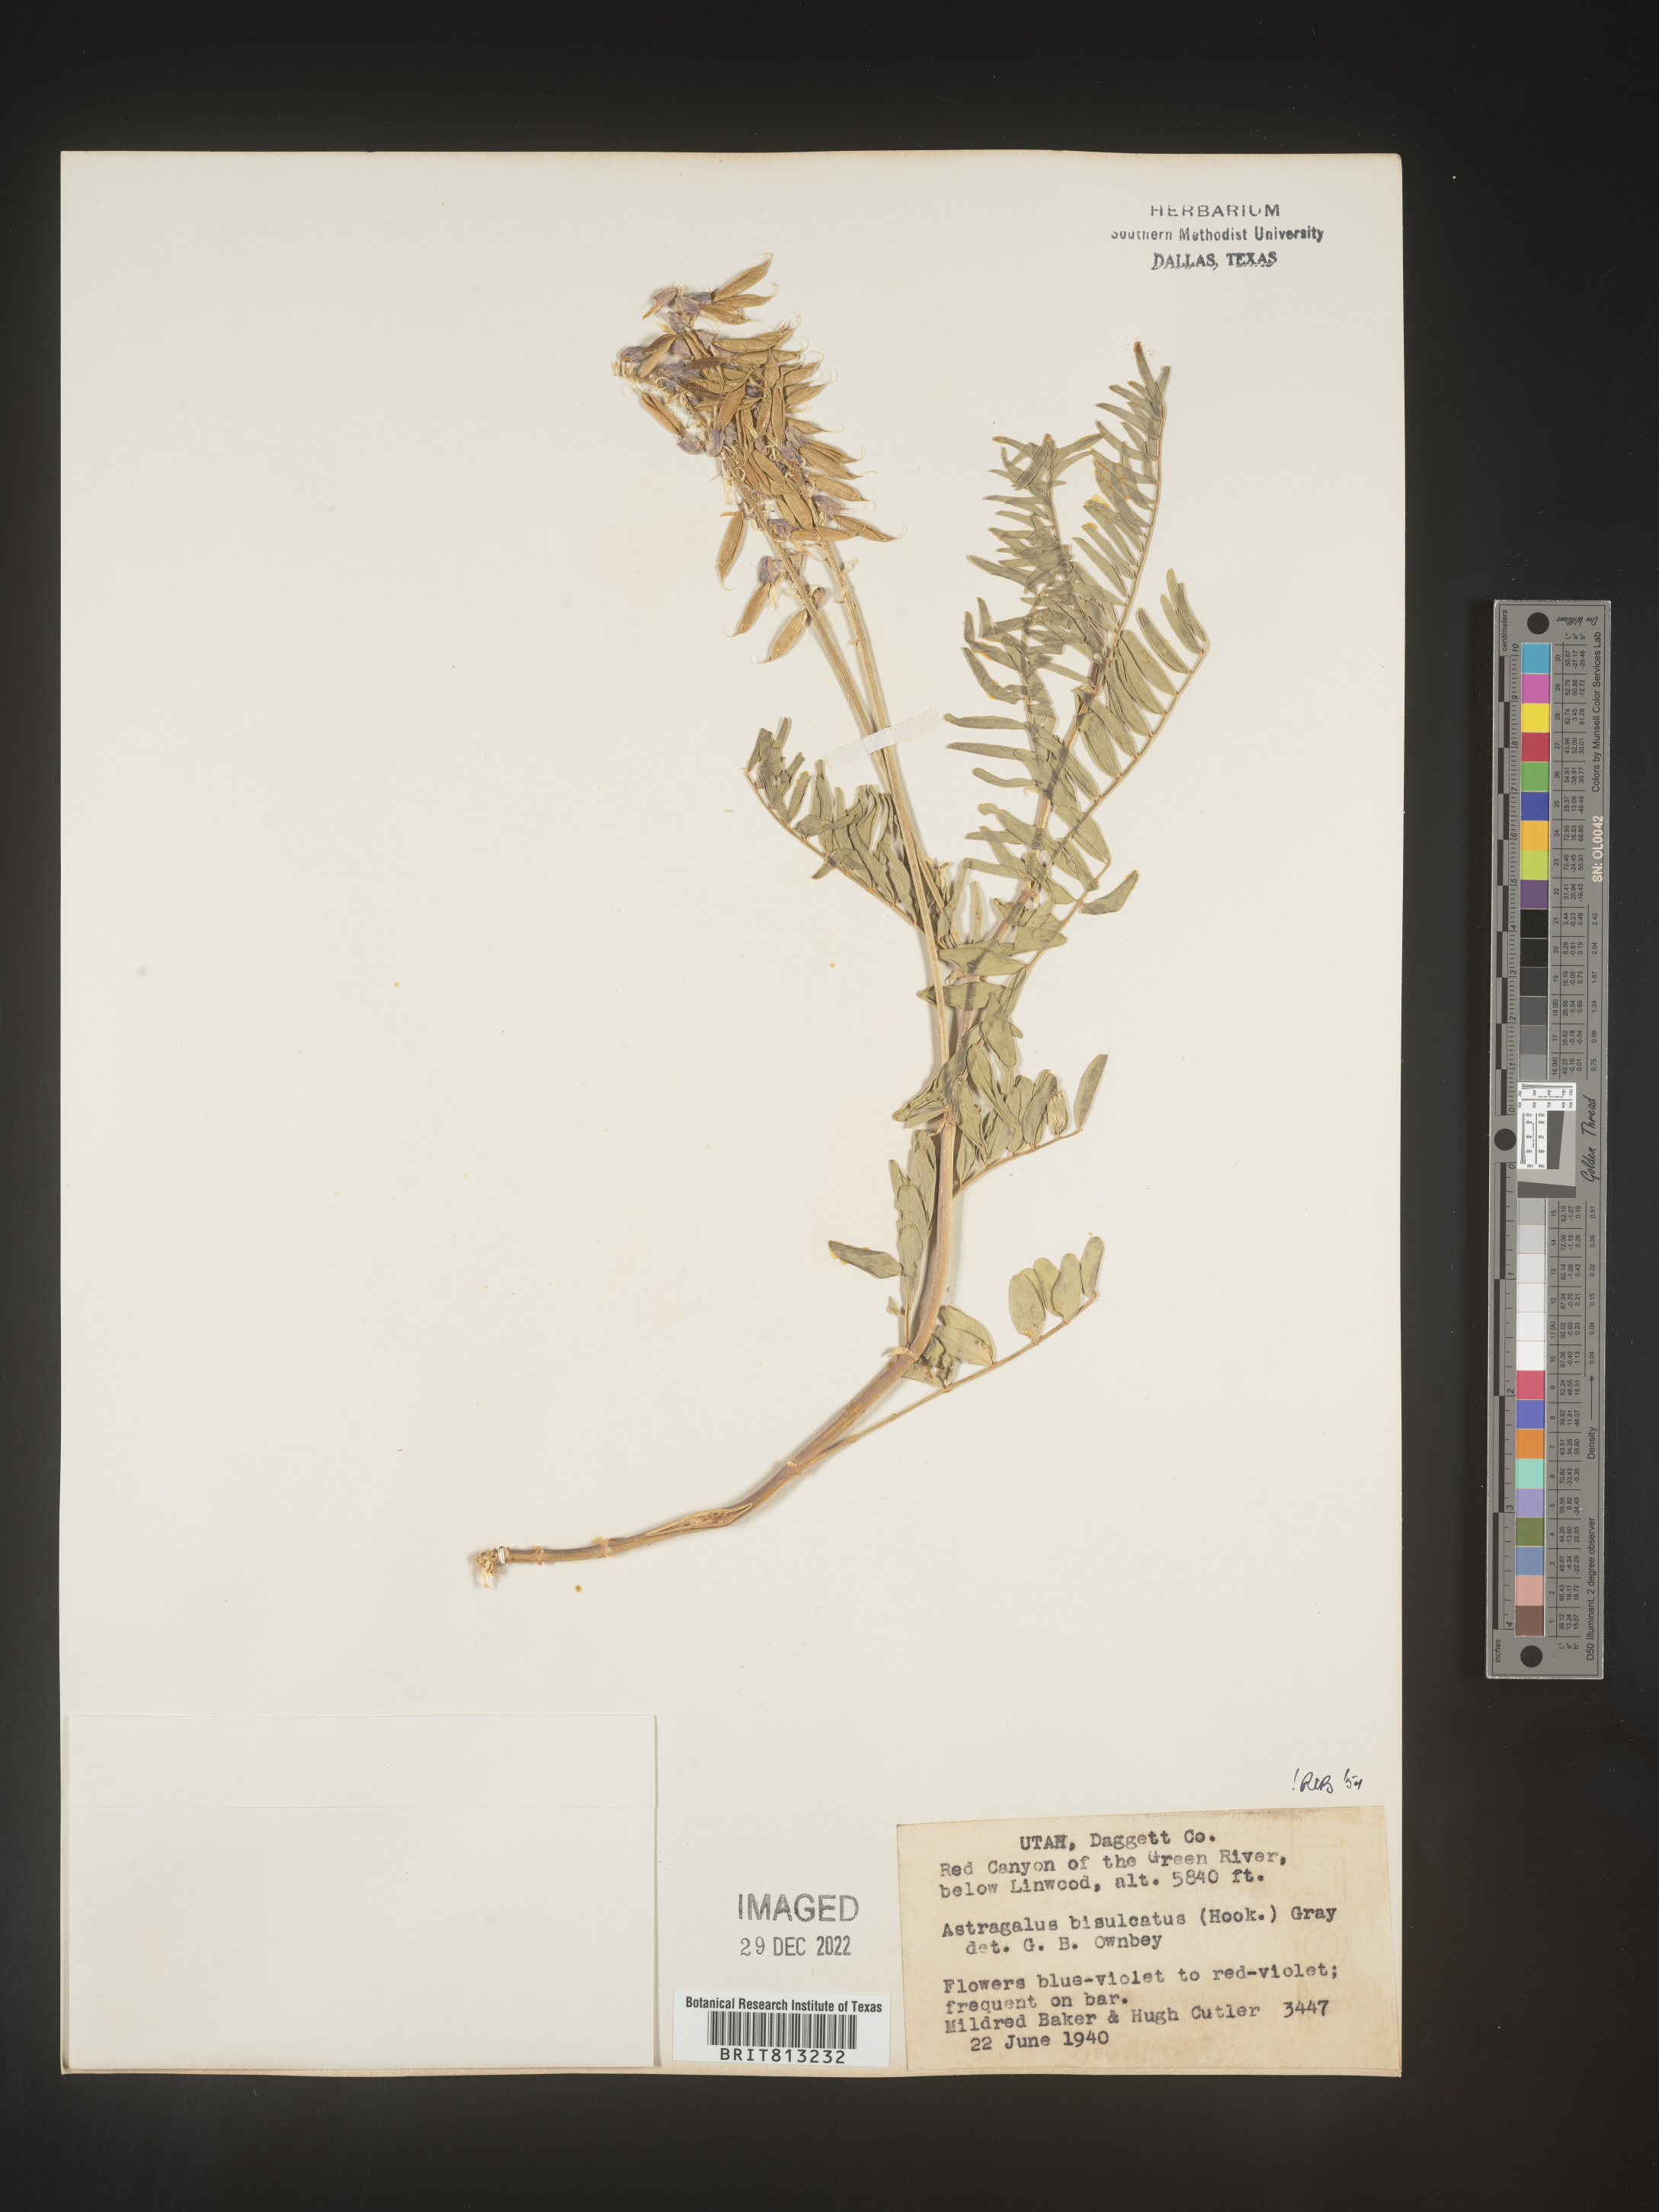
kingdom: Plantae
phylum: Tracheophyta
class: Magnoliopsida
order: Fabales
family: Fabaceae
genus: Astragalus
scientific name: Astragalus bisulcatus
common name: Two-groove milk-vetch
